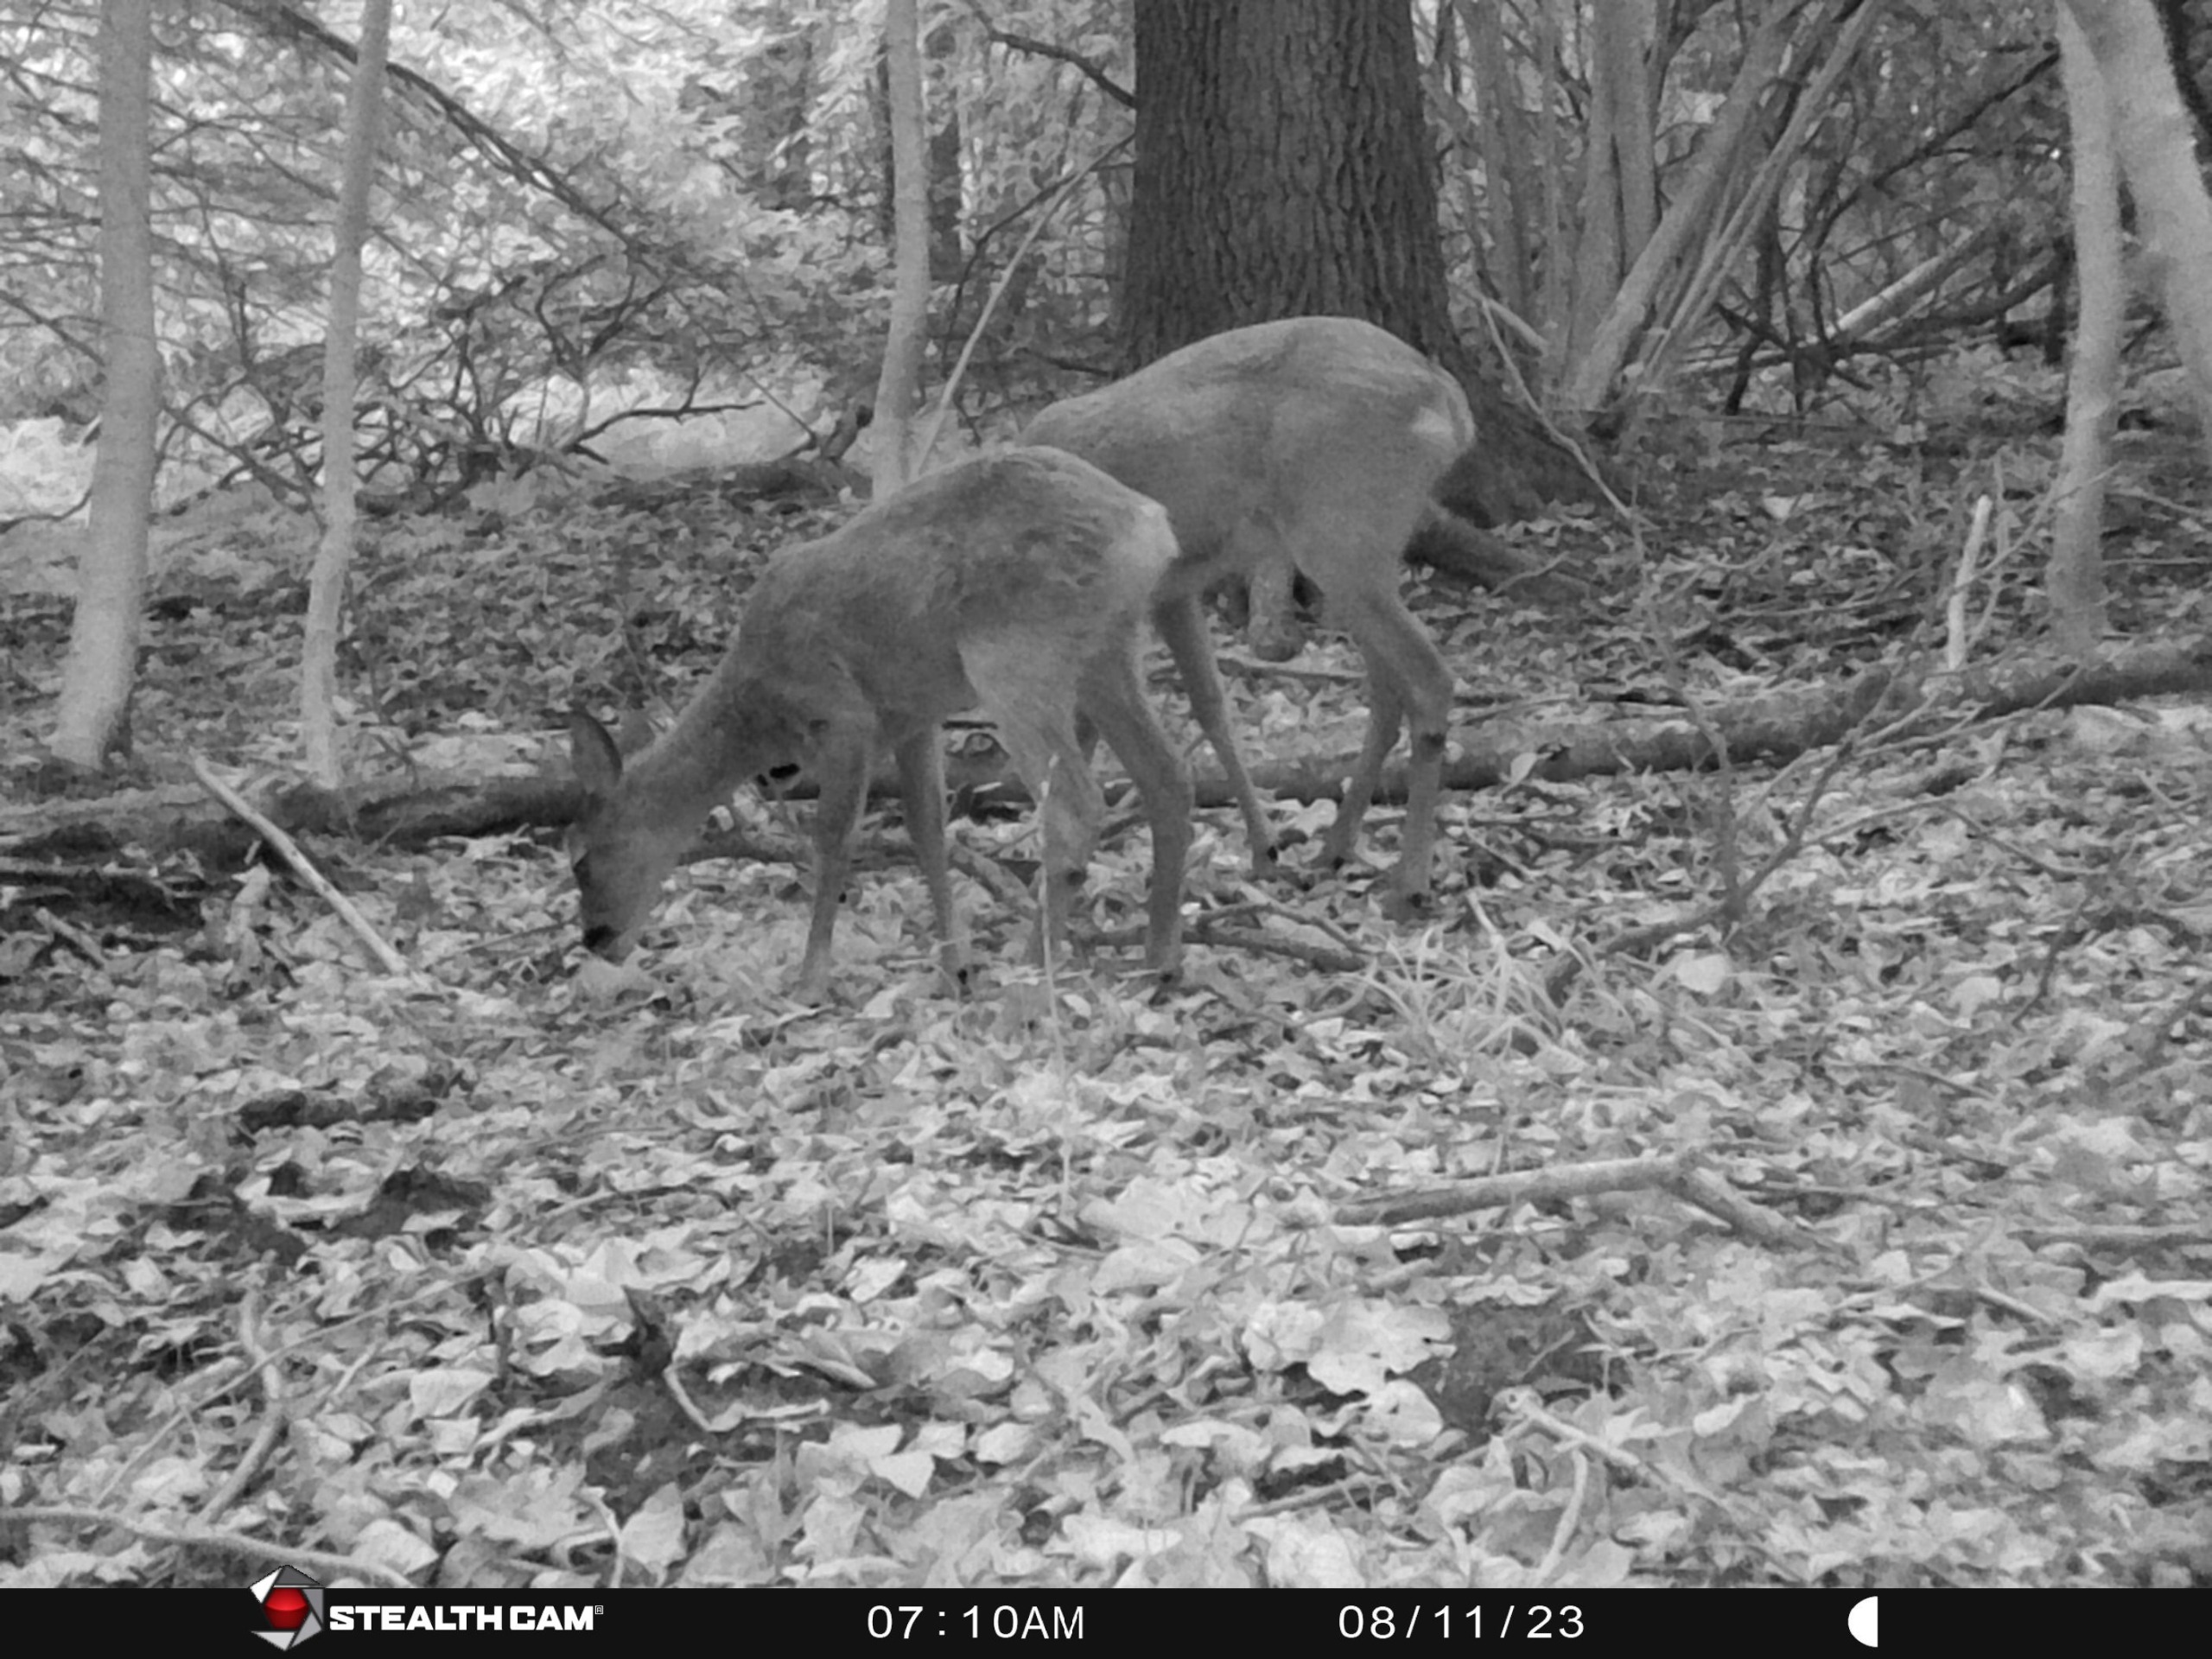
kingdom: Animalia
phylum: Chordata
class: Mammalia
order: Artiodactyla
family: Cervidae
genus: Capreolus
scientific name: Capreolus capreolus
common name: Rådyr
